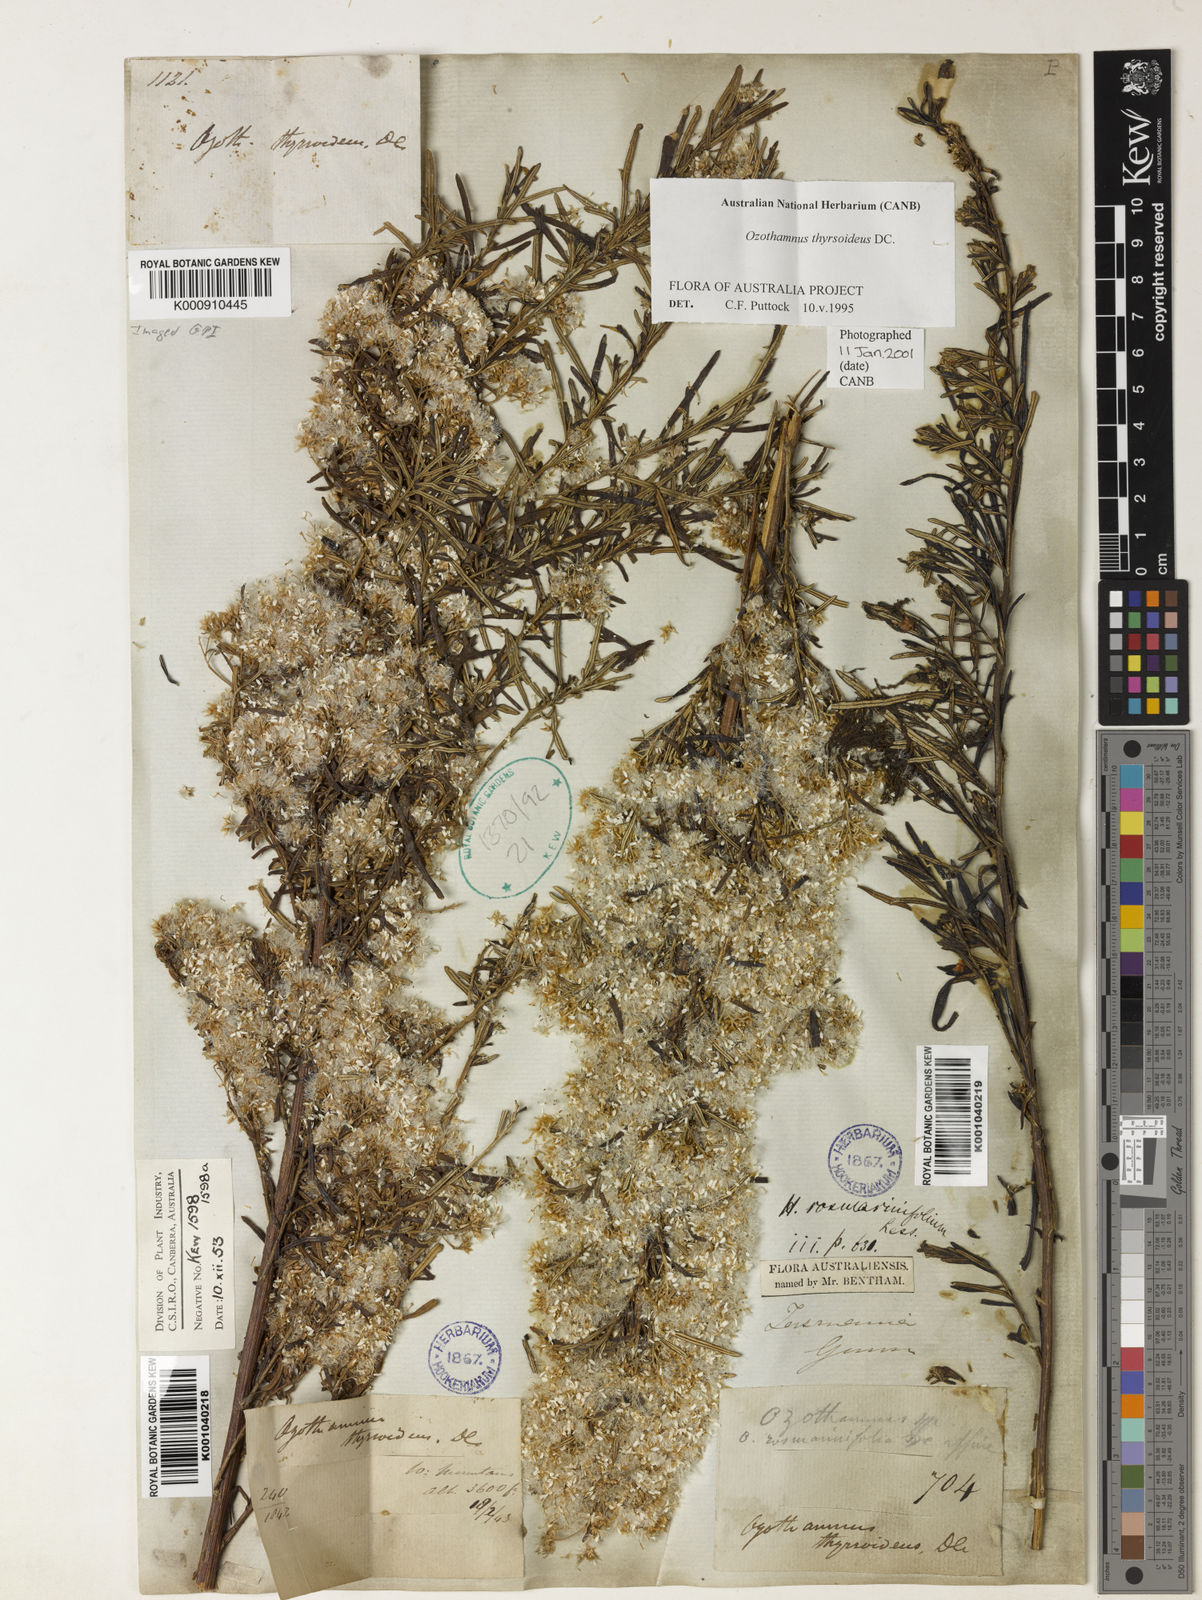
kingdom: Plantae
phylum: Tracheophyta
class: Magnoliopsida
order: Asterales
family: Asteraceae
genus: Ozothamnus
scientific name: Ozothamnus thyrsoideus
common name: Snow-in-summer
